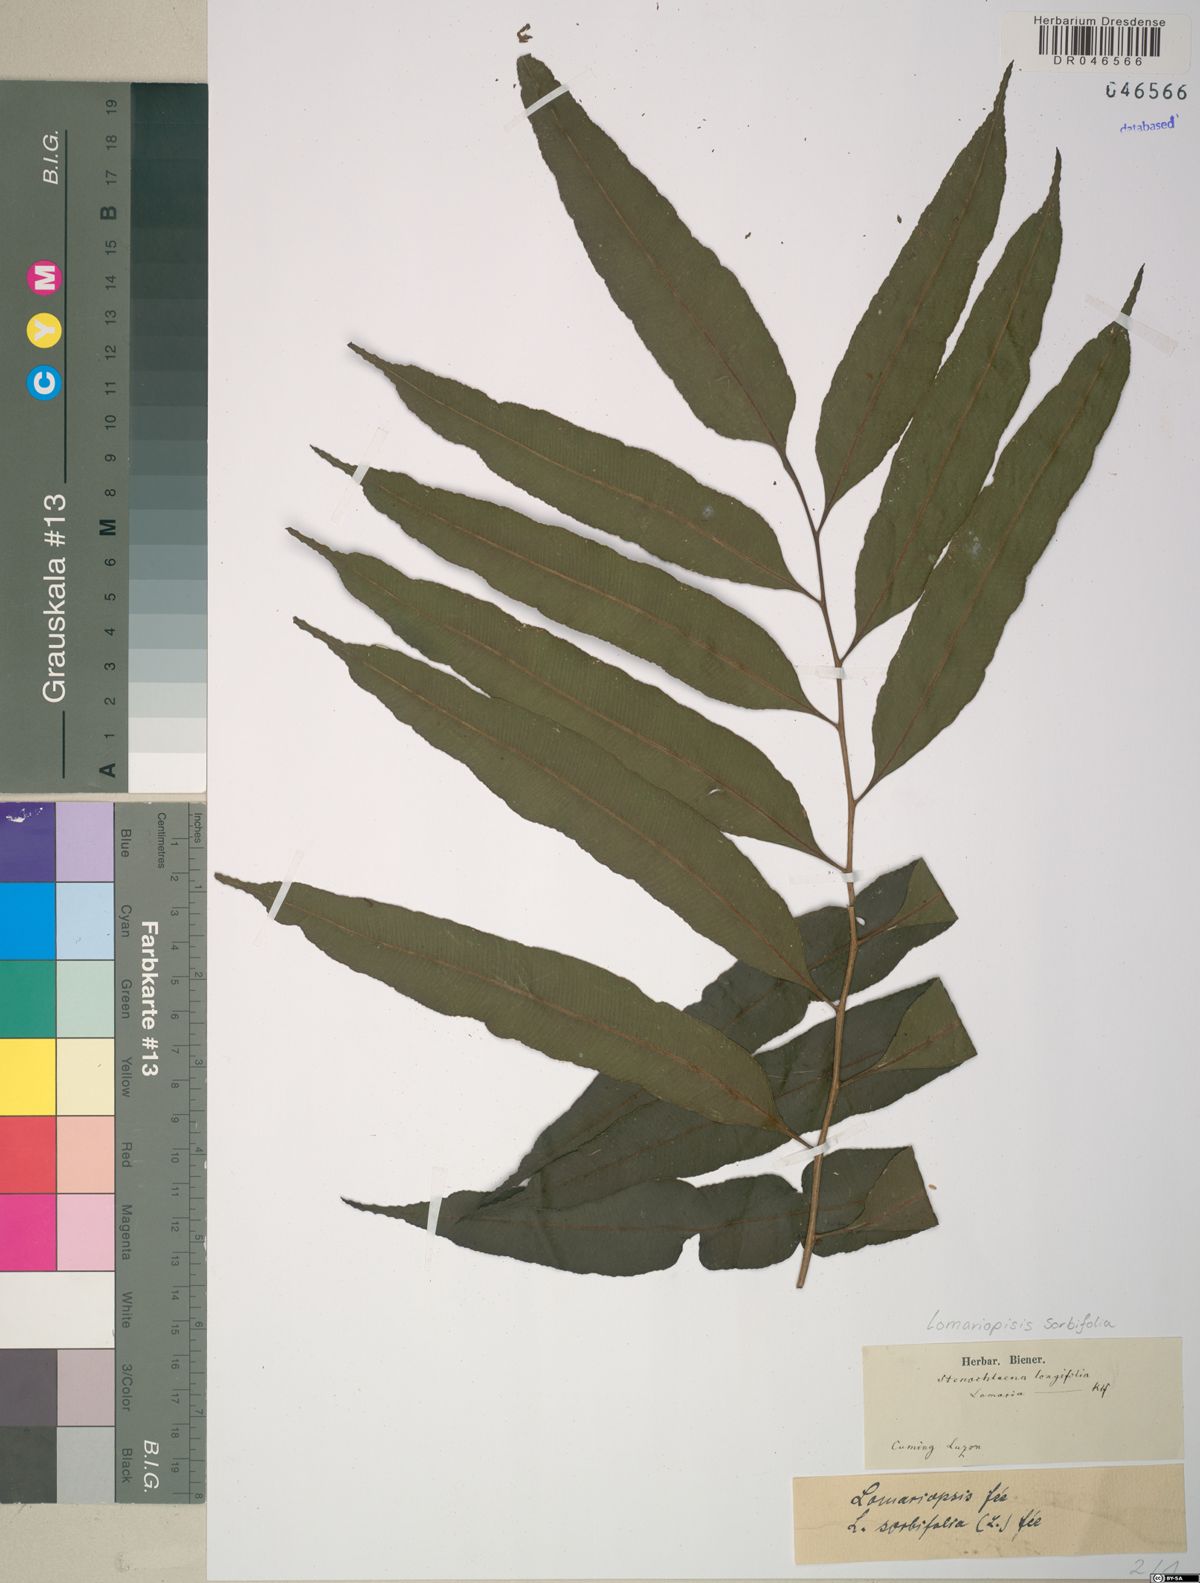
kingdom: Plantae
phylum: Tracheophyta
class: Polypodiopsida
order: Polypodiales
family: Lomariopsidaceae
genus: Lomariopsis
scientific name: Lomariopsis lineata
